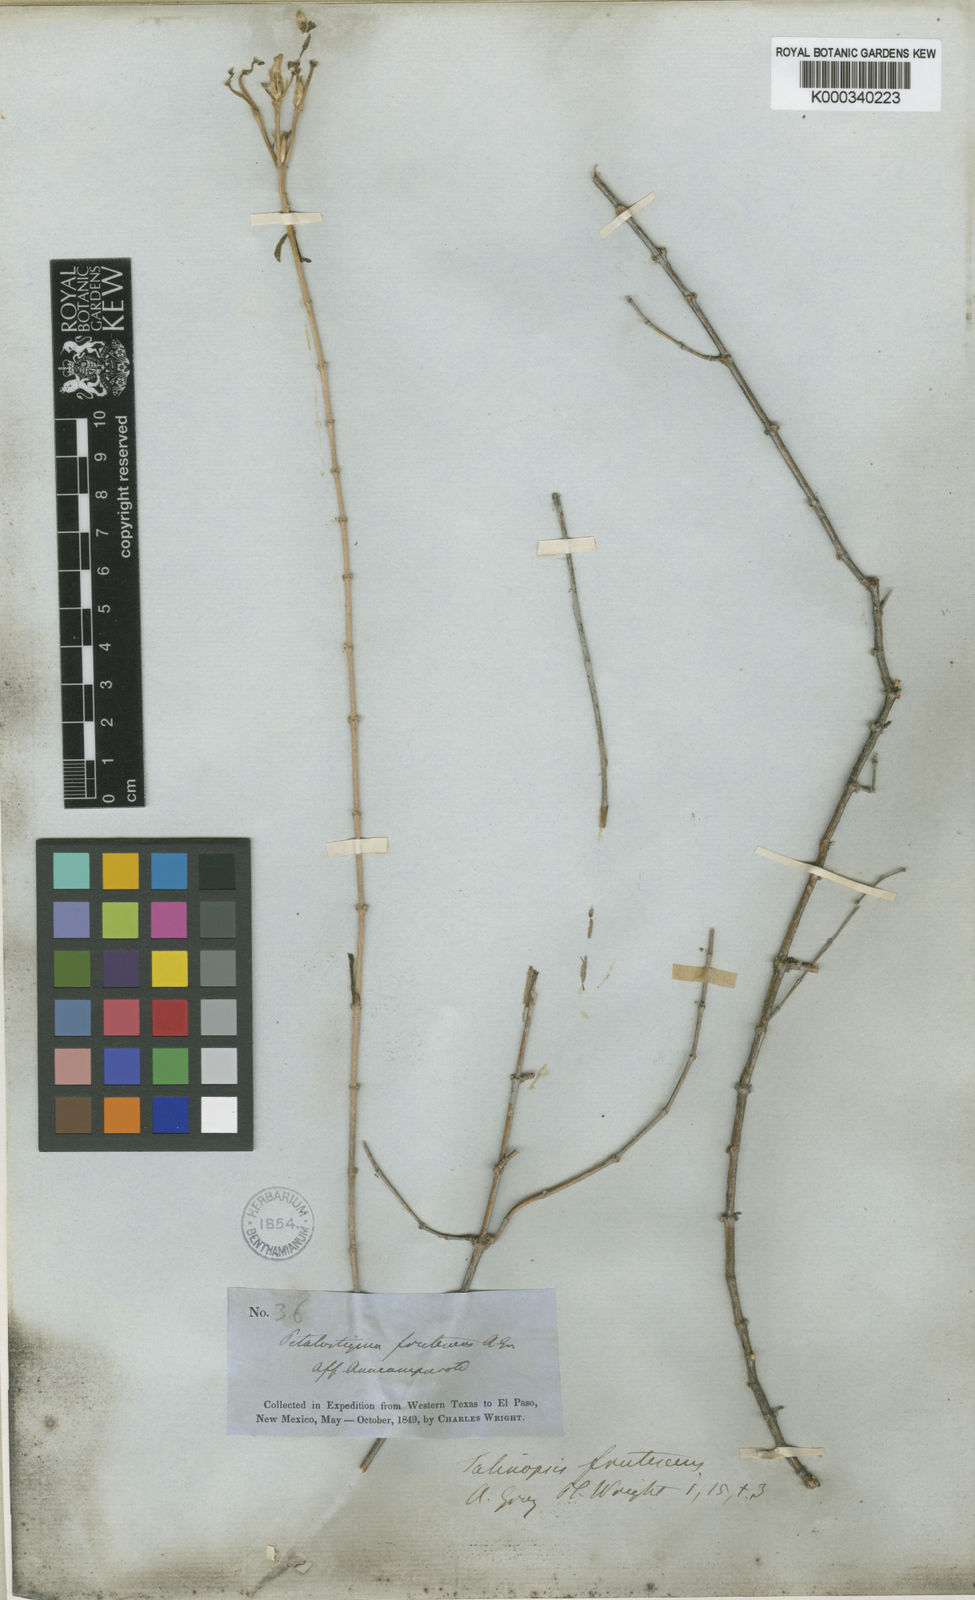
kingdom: Plantae
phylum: Tracheophyta
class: Magnoliopsida
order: Caryophyllales
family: Anacampserotaceae
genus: Grahamia
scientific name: Grahamia frutescens
